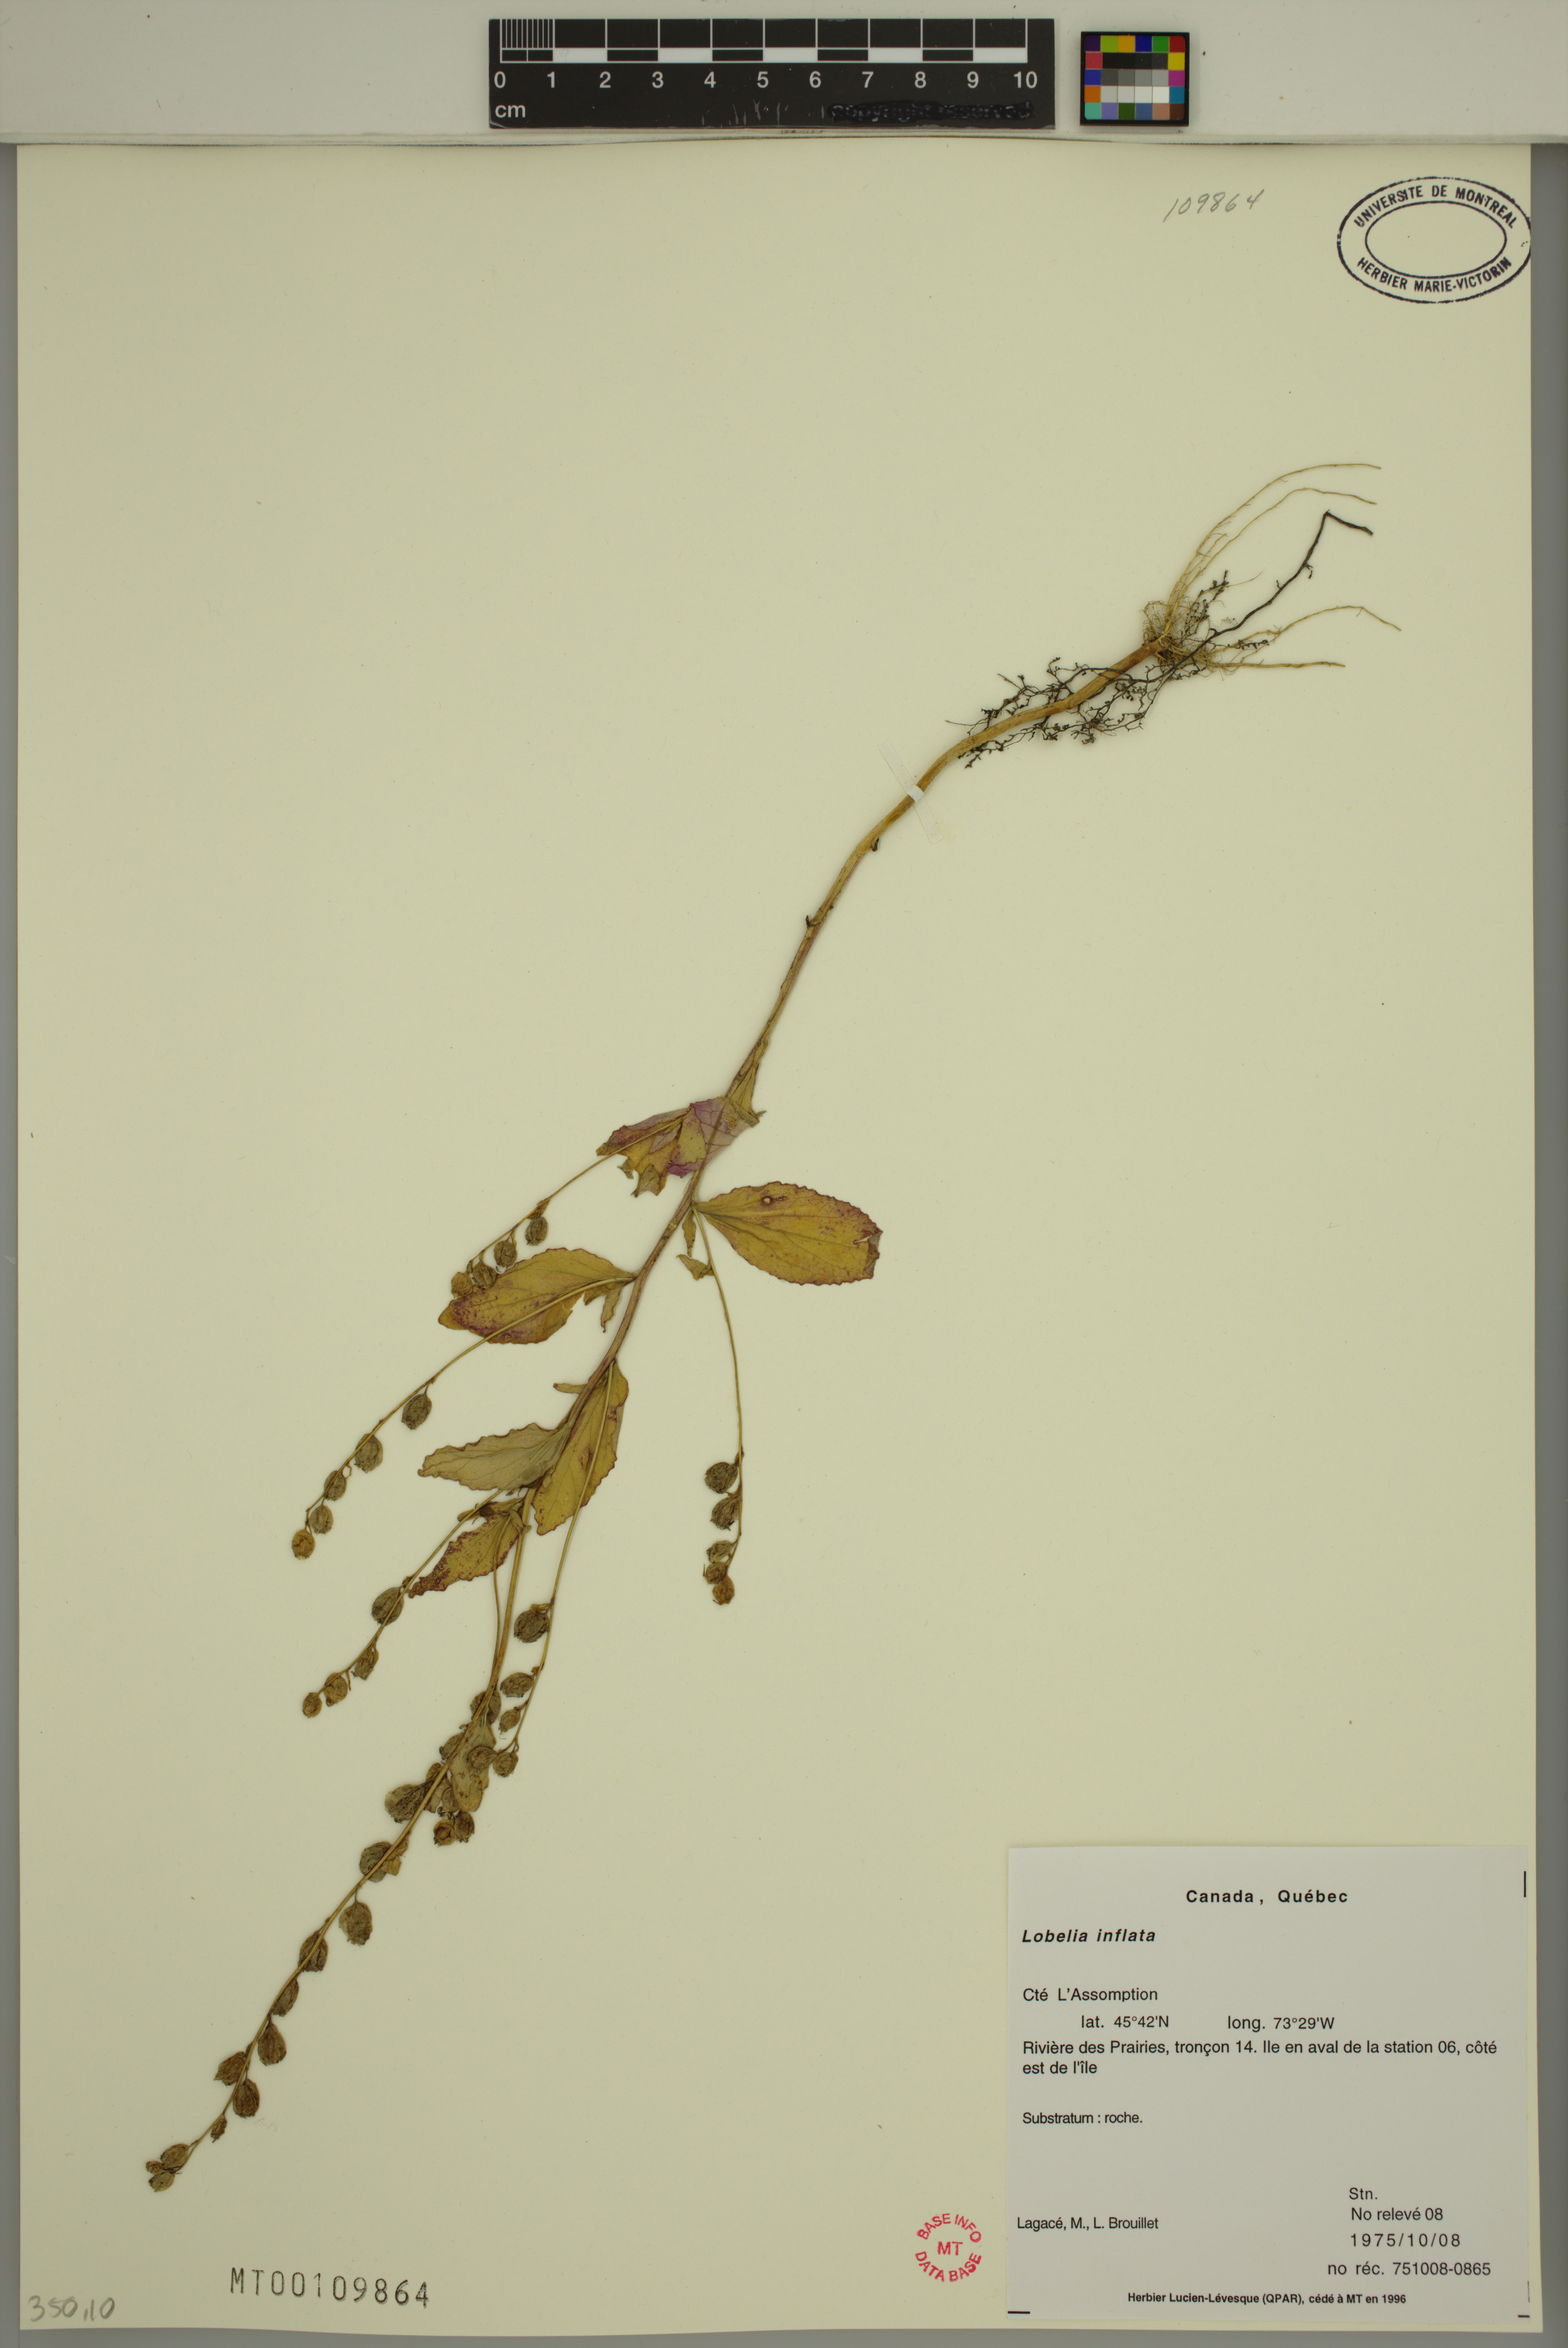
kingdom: Plantae
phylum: Tracheophyta
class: Magnoliopsida
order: Asterales
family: Campanulaceae
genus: Lobelia
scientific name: Lobelia inflata
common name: Indian tobacco
